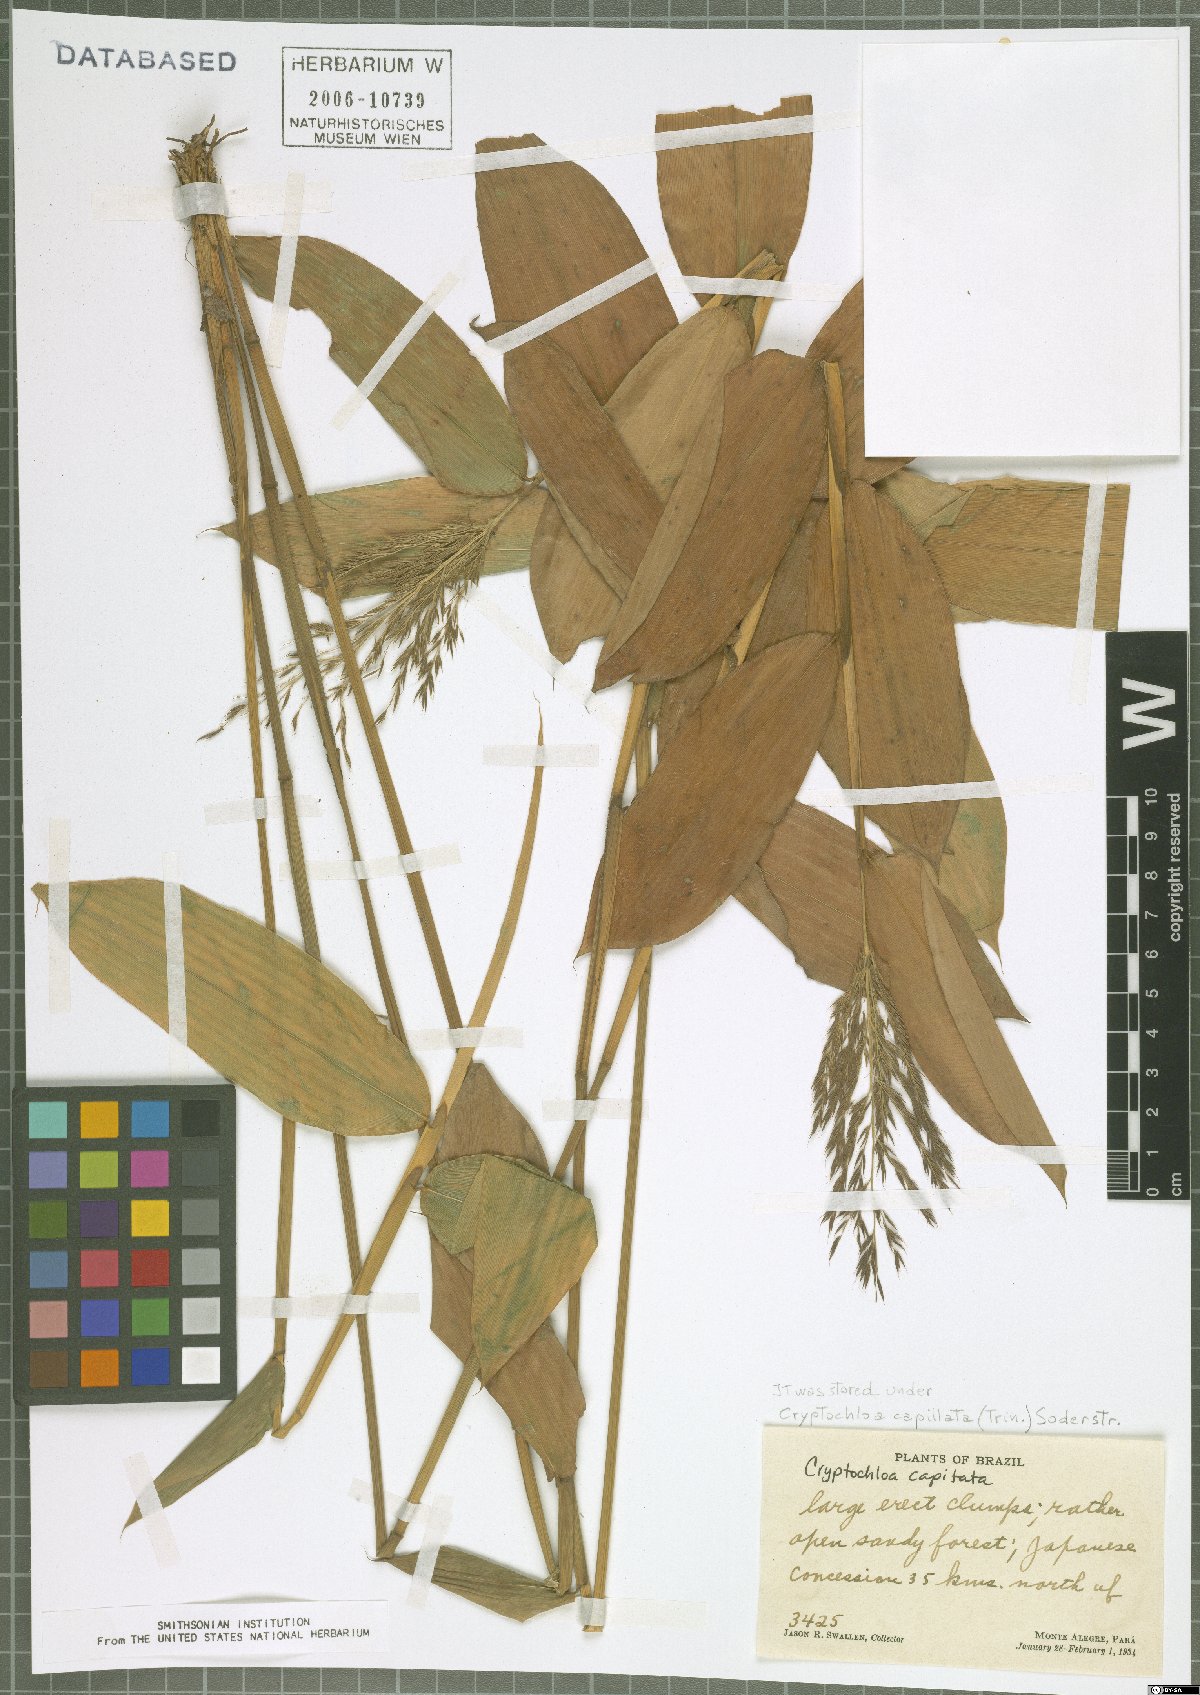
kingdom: Plantae
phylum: Tracheophyta
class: Liliopsida
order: Poales
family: Poaceae
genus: Cryptochloa
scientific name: Cryptochloa capillata
